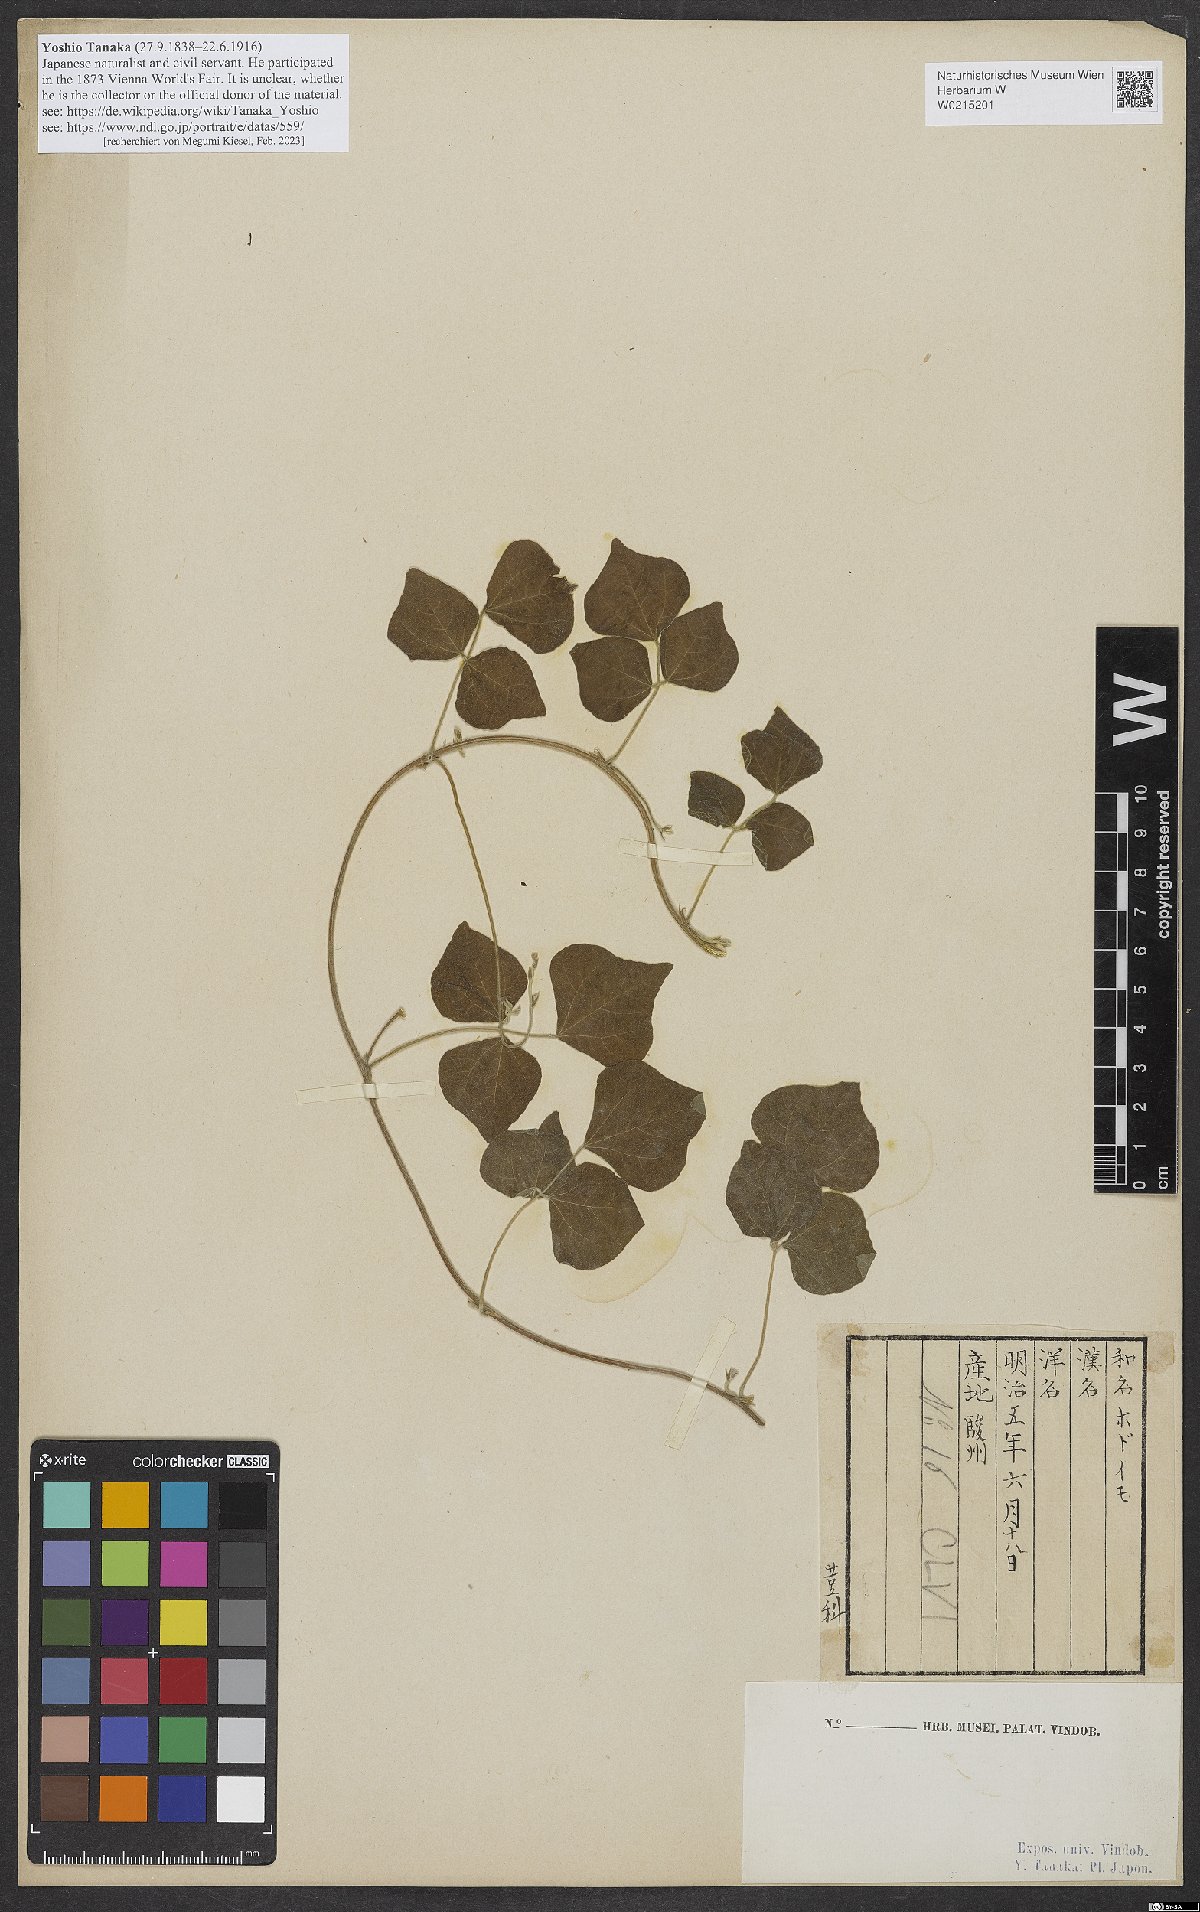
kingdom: Plantae
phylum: Tracheophyta
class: Magnoliopsida
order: Fabales
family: Fabaceae
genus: Apios
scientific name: Apios fortunei
